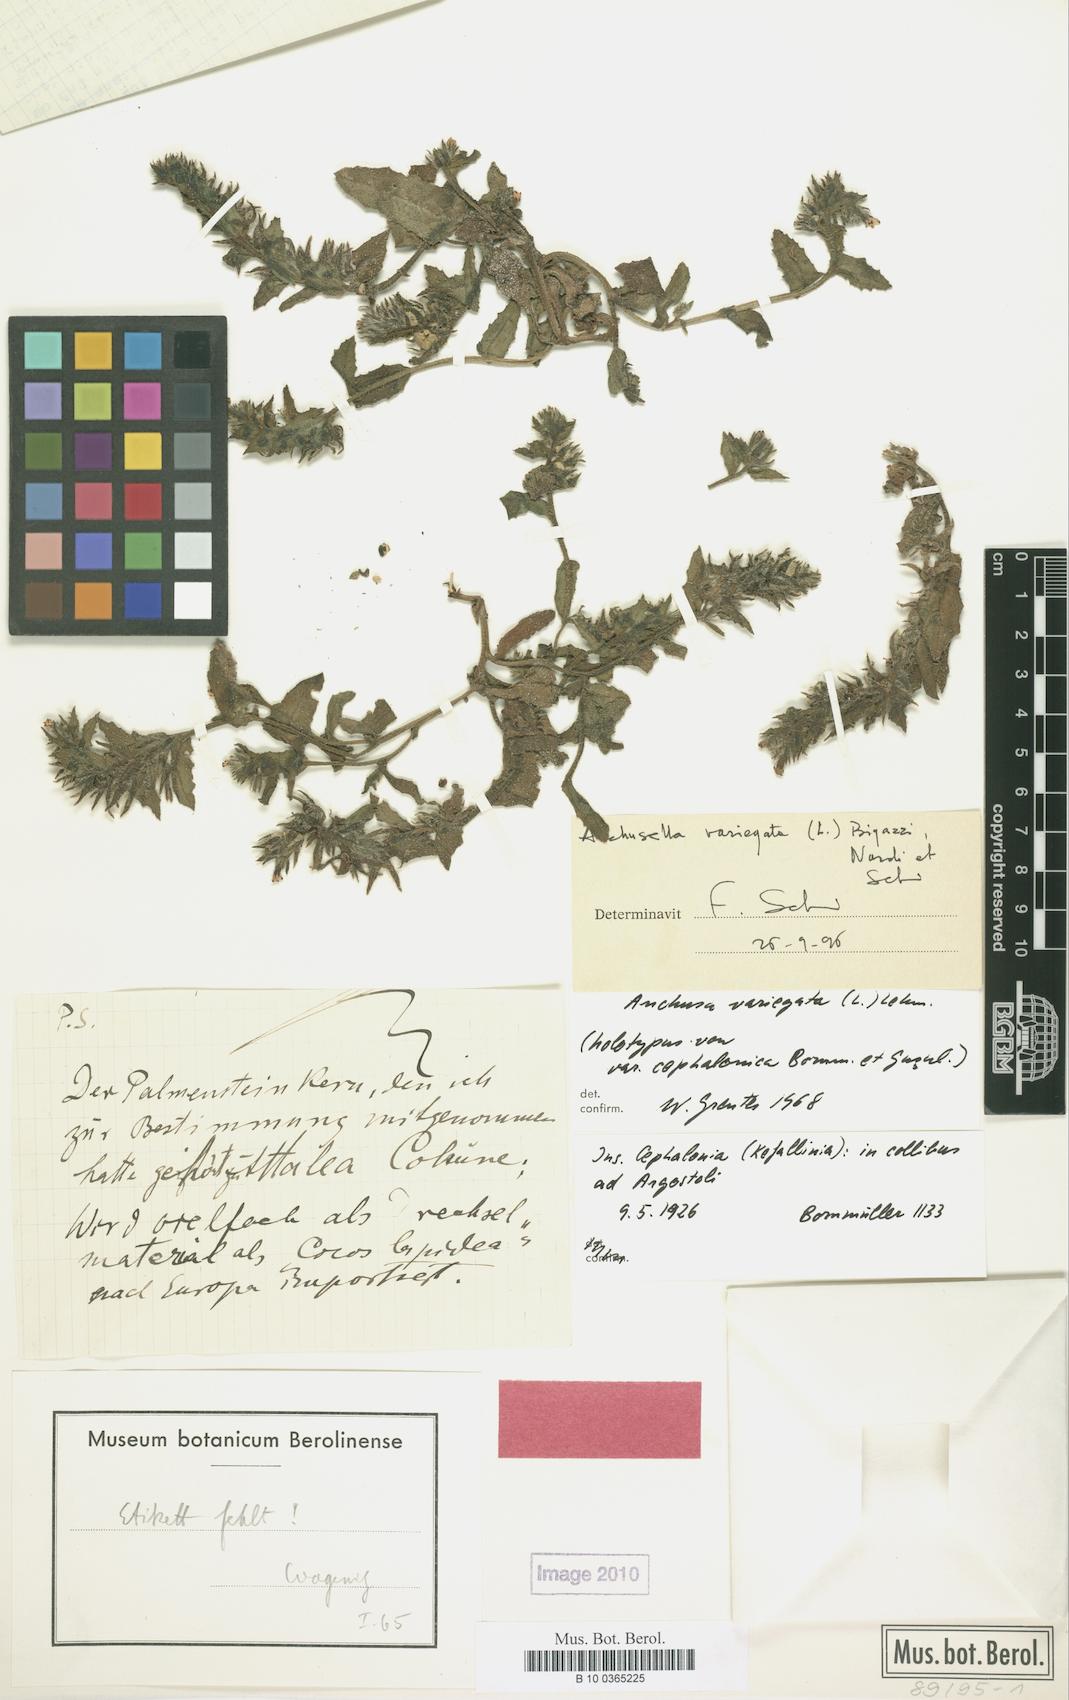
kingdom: Plantae
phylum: Tracheophyta
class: Magnoliopsida
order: Boraginales
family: Boraginaceae
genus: Anchusella
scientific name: Anchusella variegata
